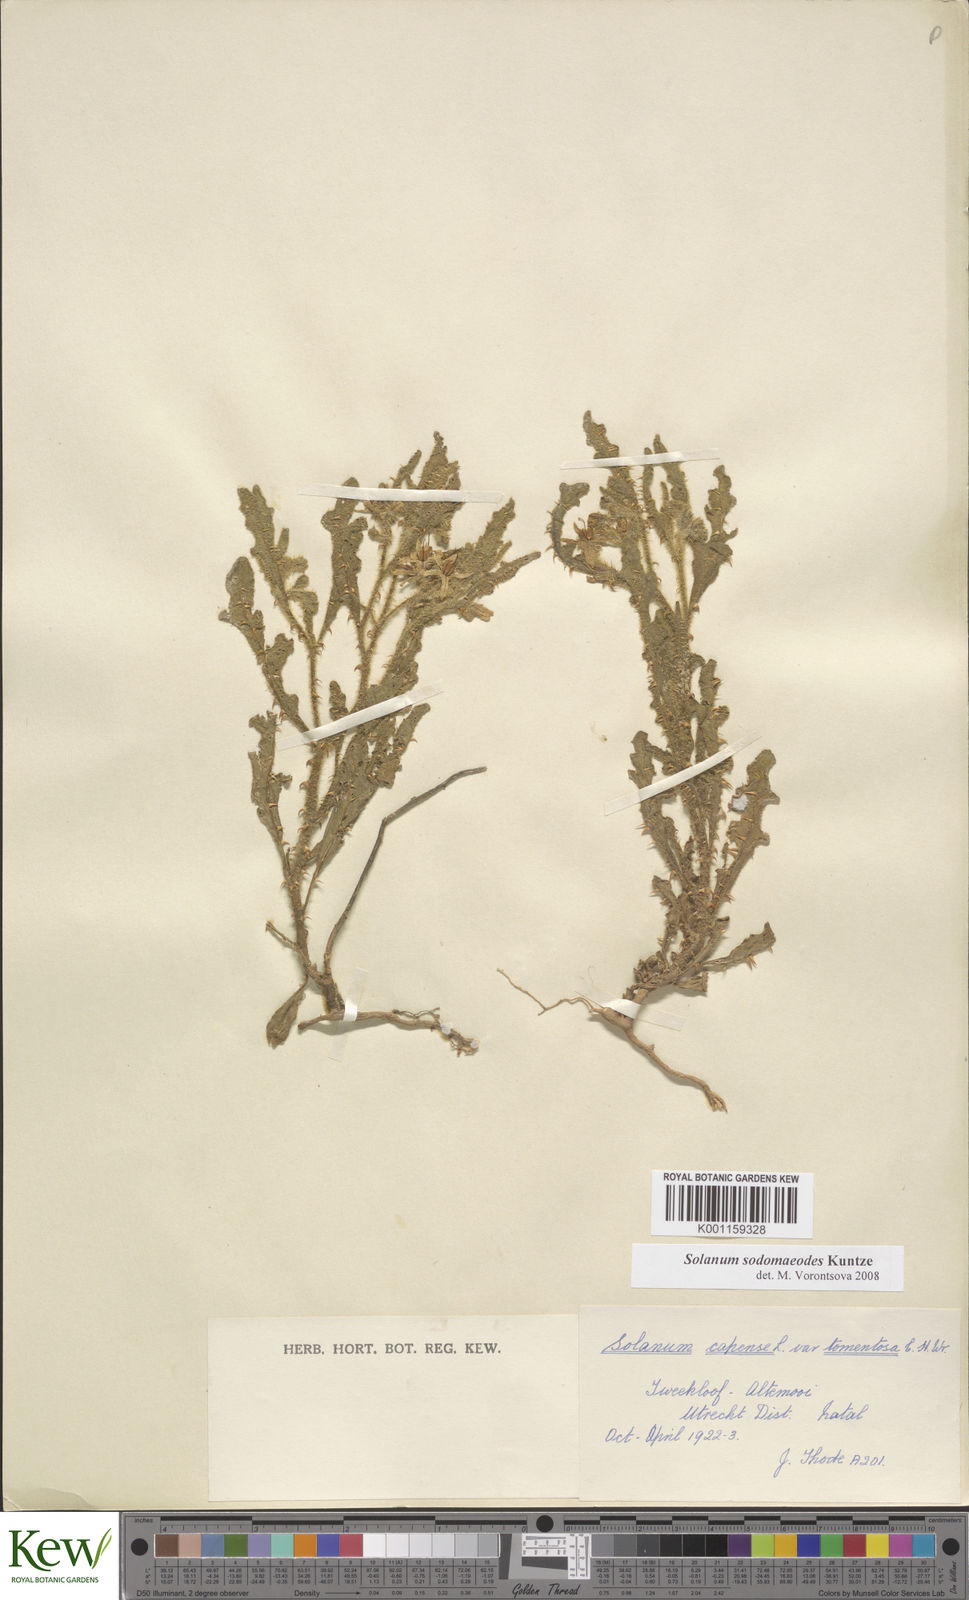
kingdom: Plantae
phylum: Tracheophyta
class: Magnoliopsida
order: Solanales
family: Solanaceae
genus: Solanum
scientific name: Solanum linnaeanum
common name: Nightshade
